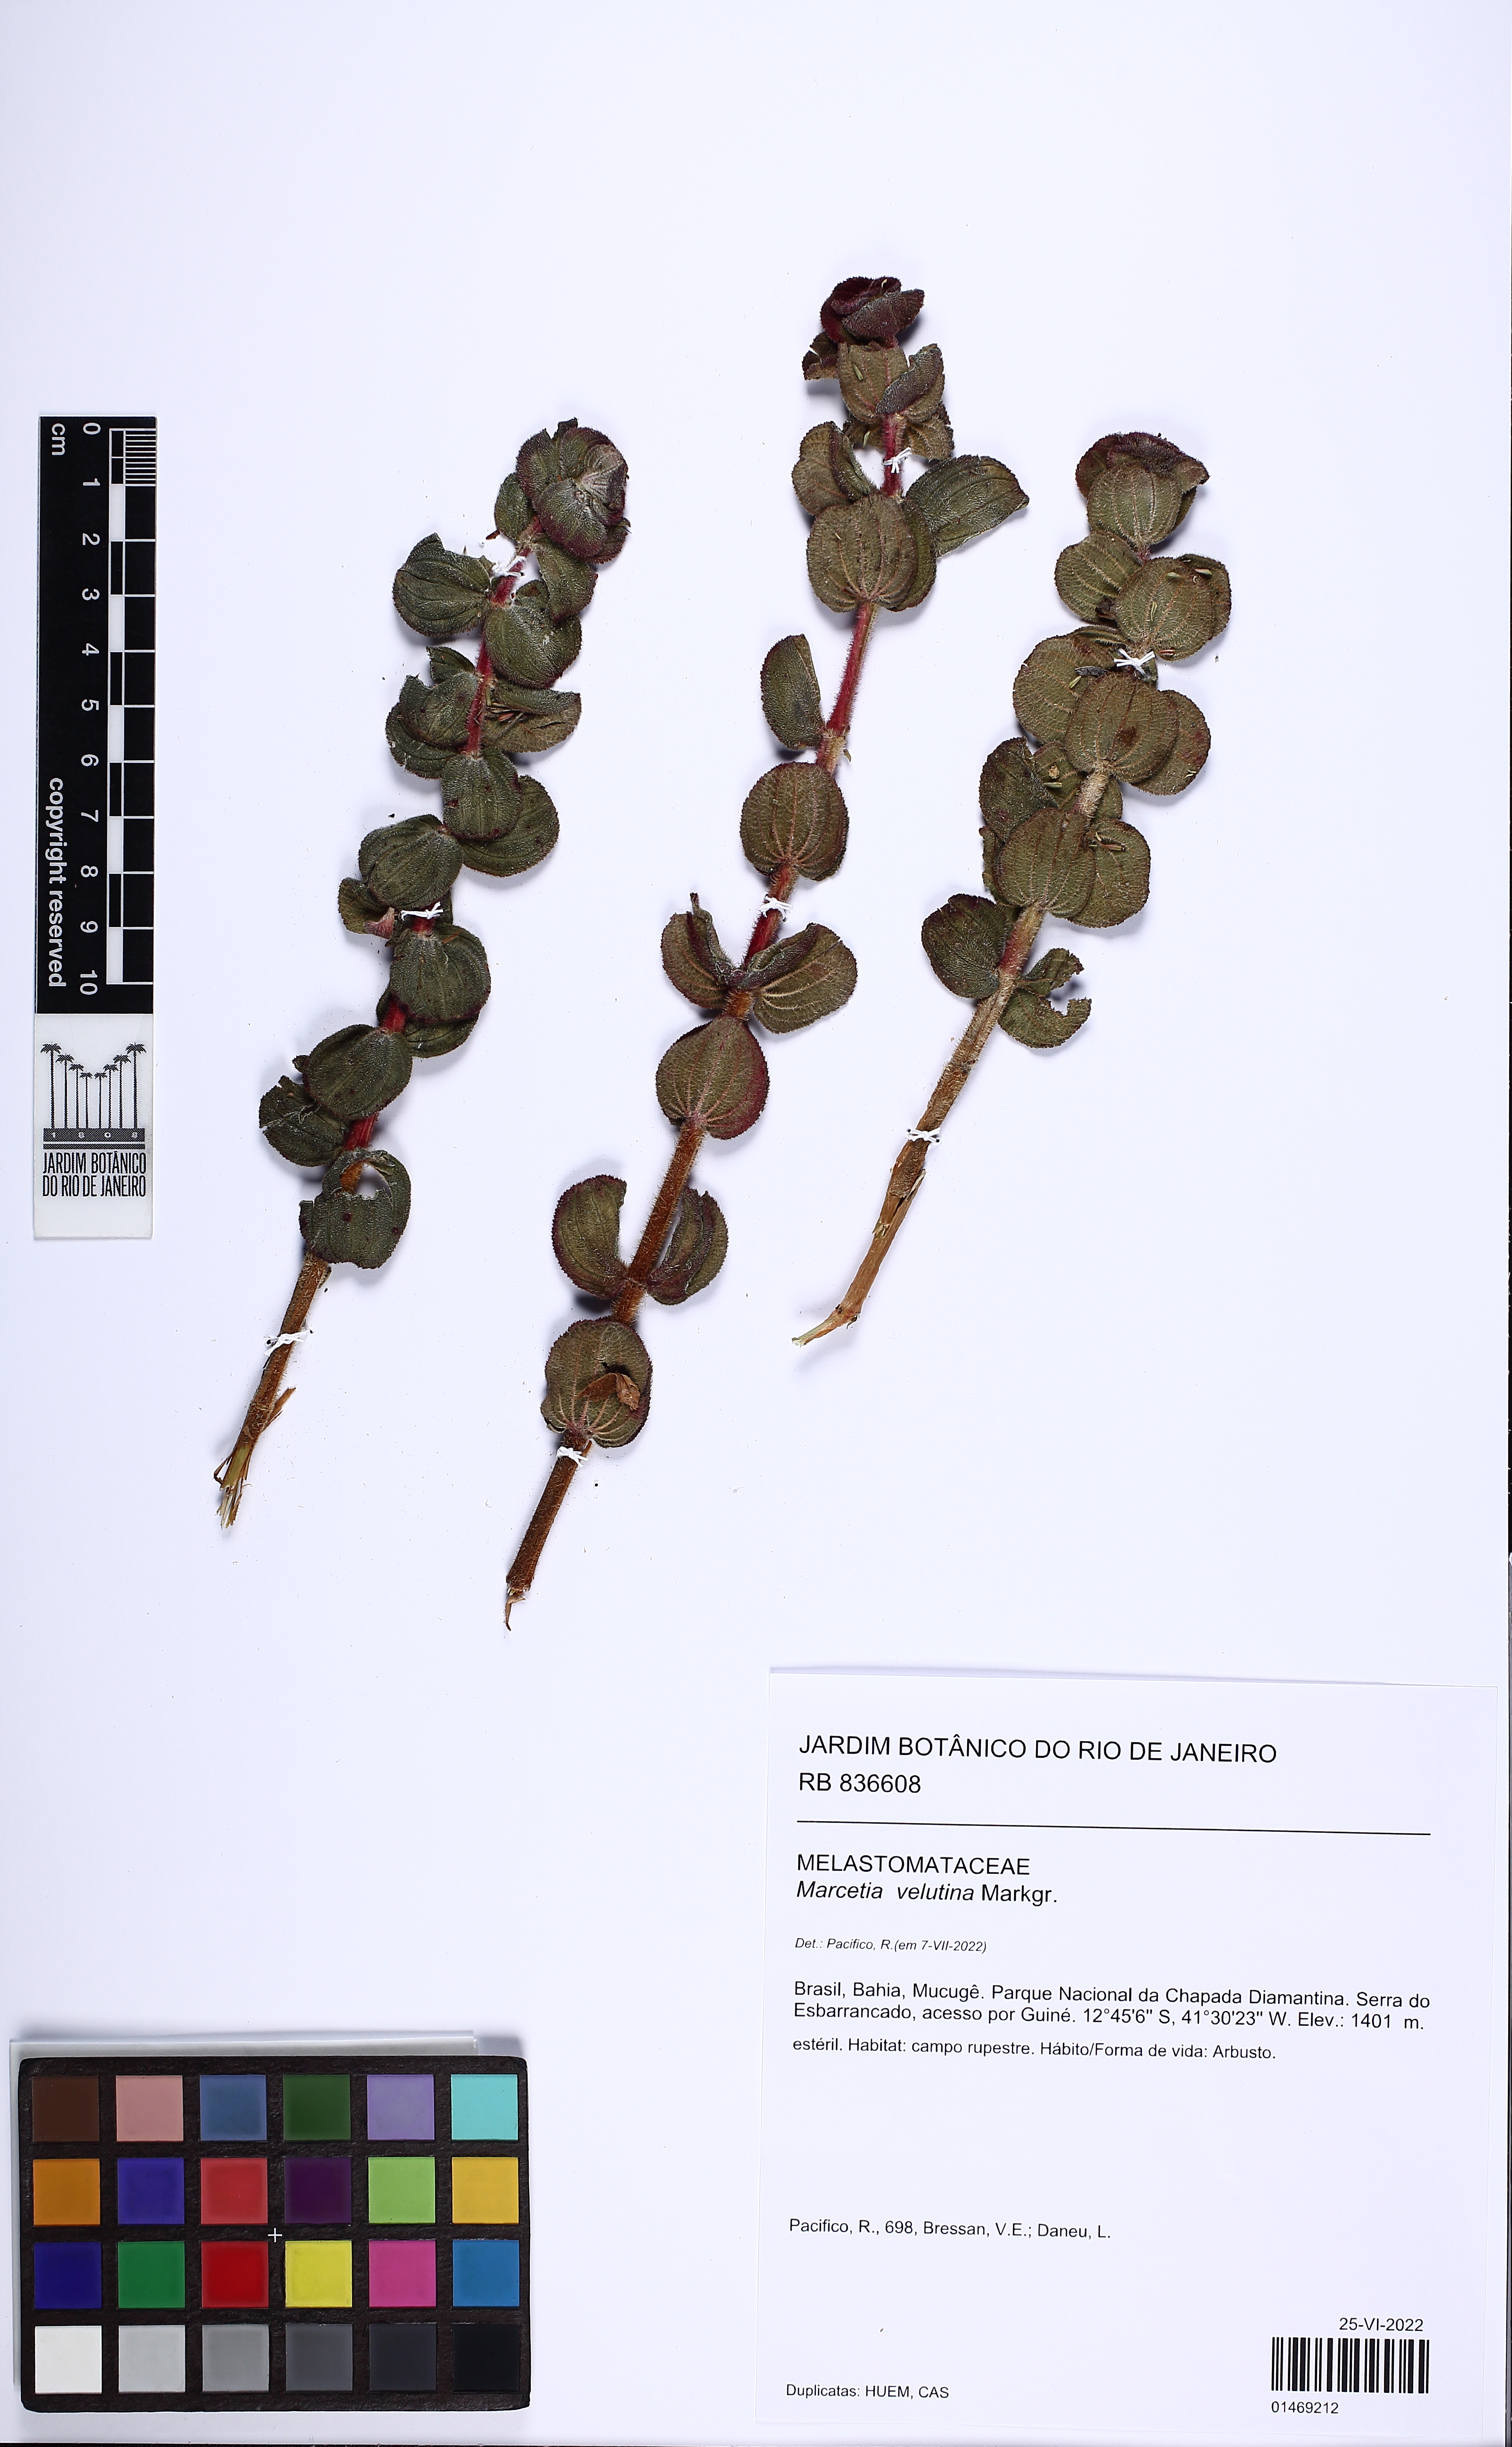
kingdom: Plantae
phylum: Tracheophyta
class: Magnoliopsida
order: Myrtales
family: Melastomataceae
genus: Marcetia
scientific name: Marcetia velutina
